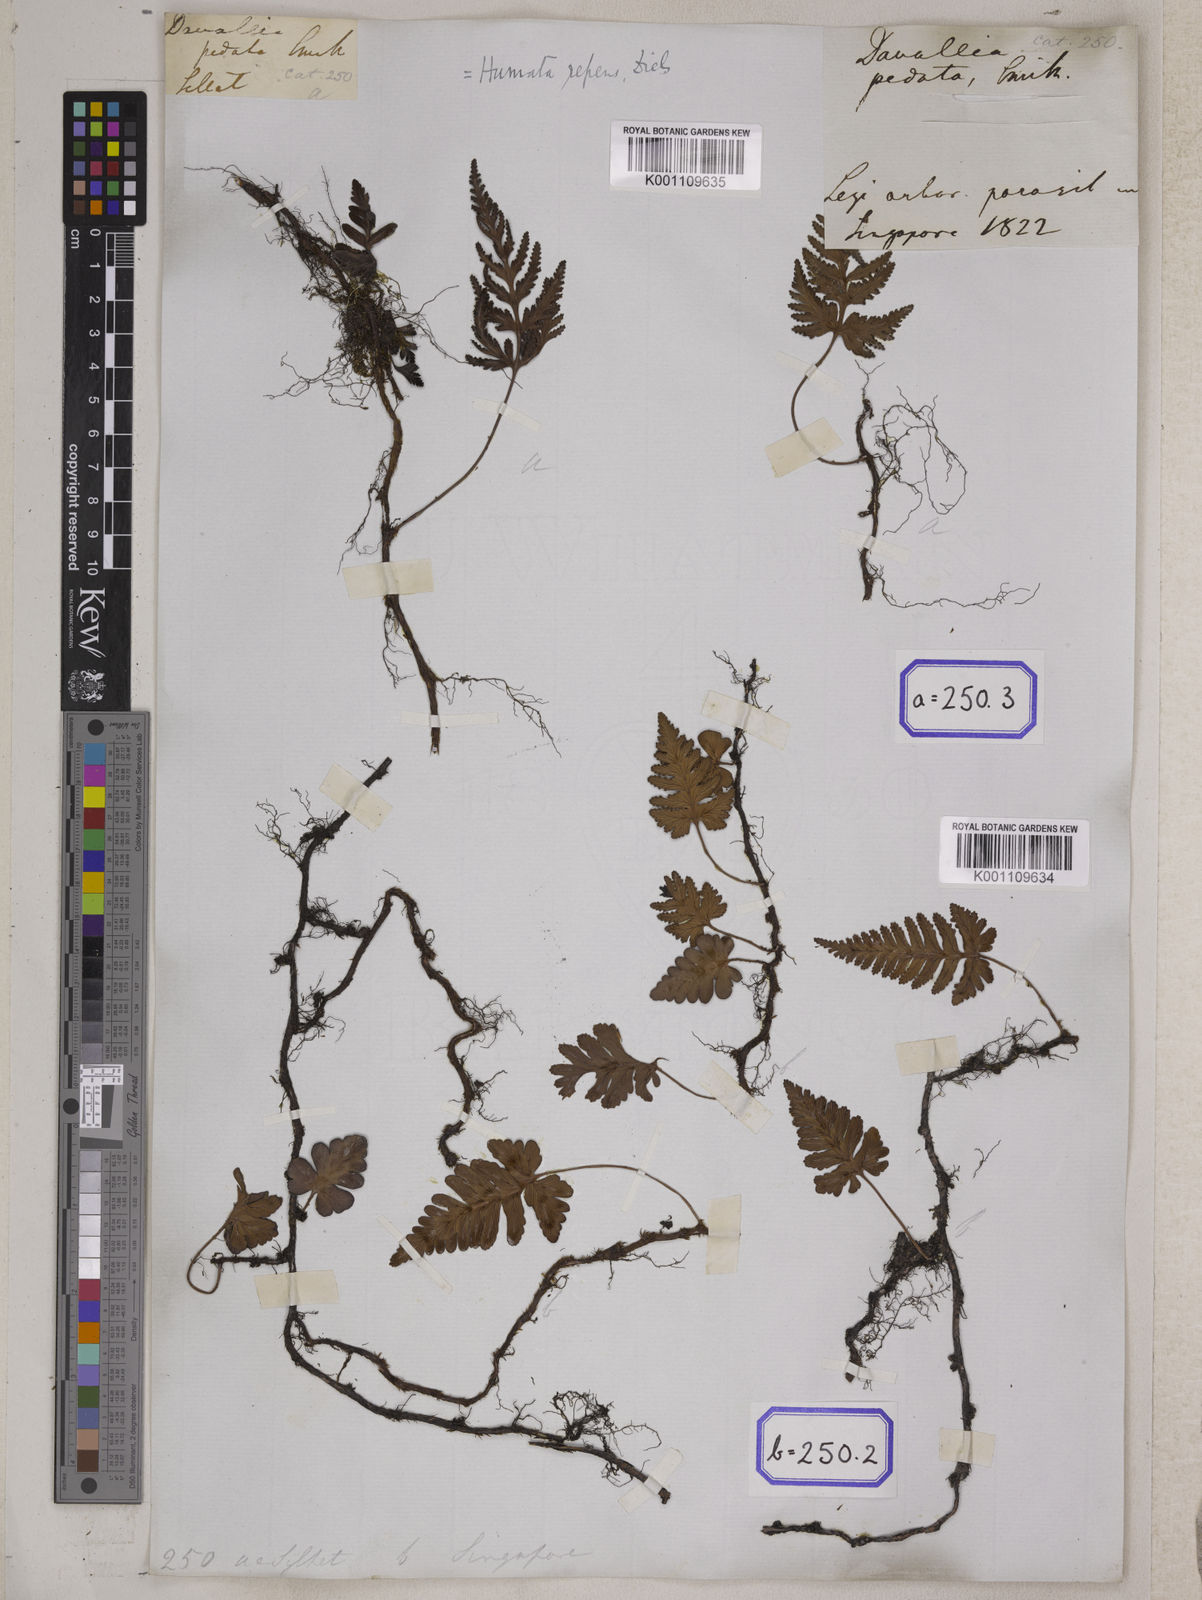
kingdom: Plantae
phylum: Tracheophyta
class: Polypodiopsida
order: Polypodiales
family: Davalliaceae
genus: Davallia
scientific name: Davallia repens
